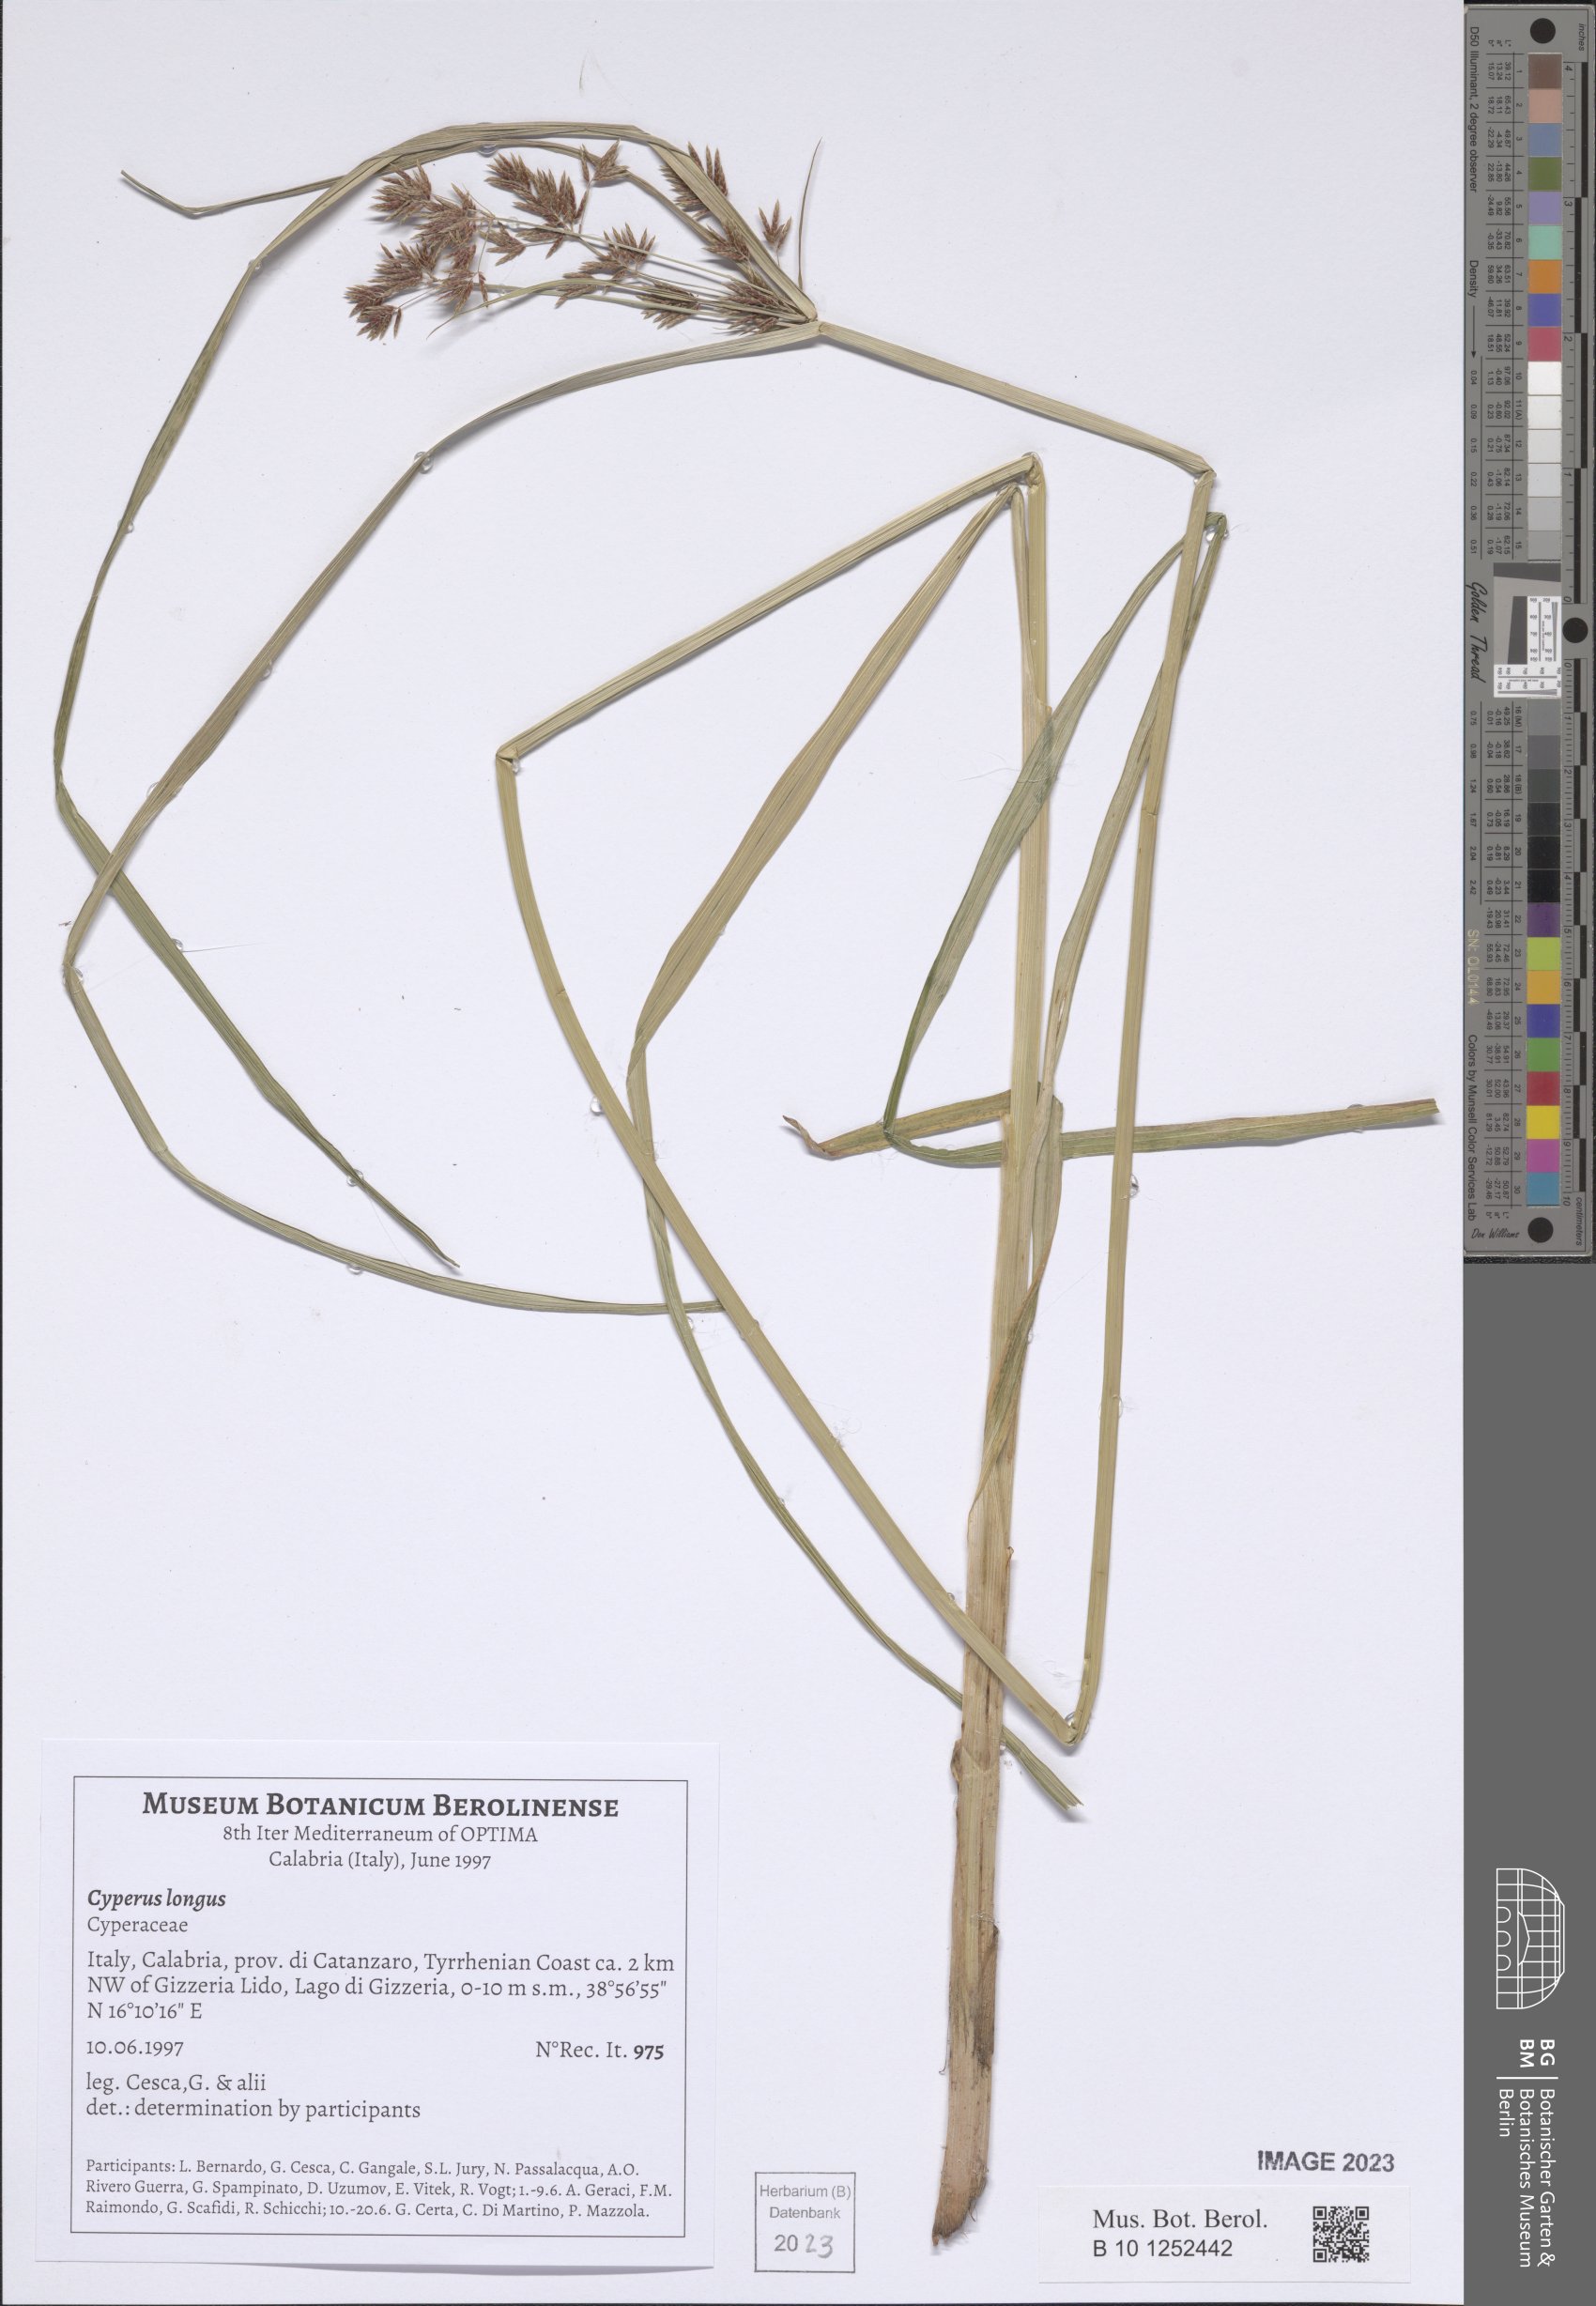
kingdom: Plantae
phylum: Tracheophyta
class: Liliopsida
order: Poales
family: Cyperaceae
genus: Cyperus
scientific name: Cyperus longus
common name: Galingale
